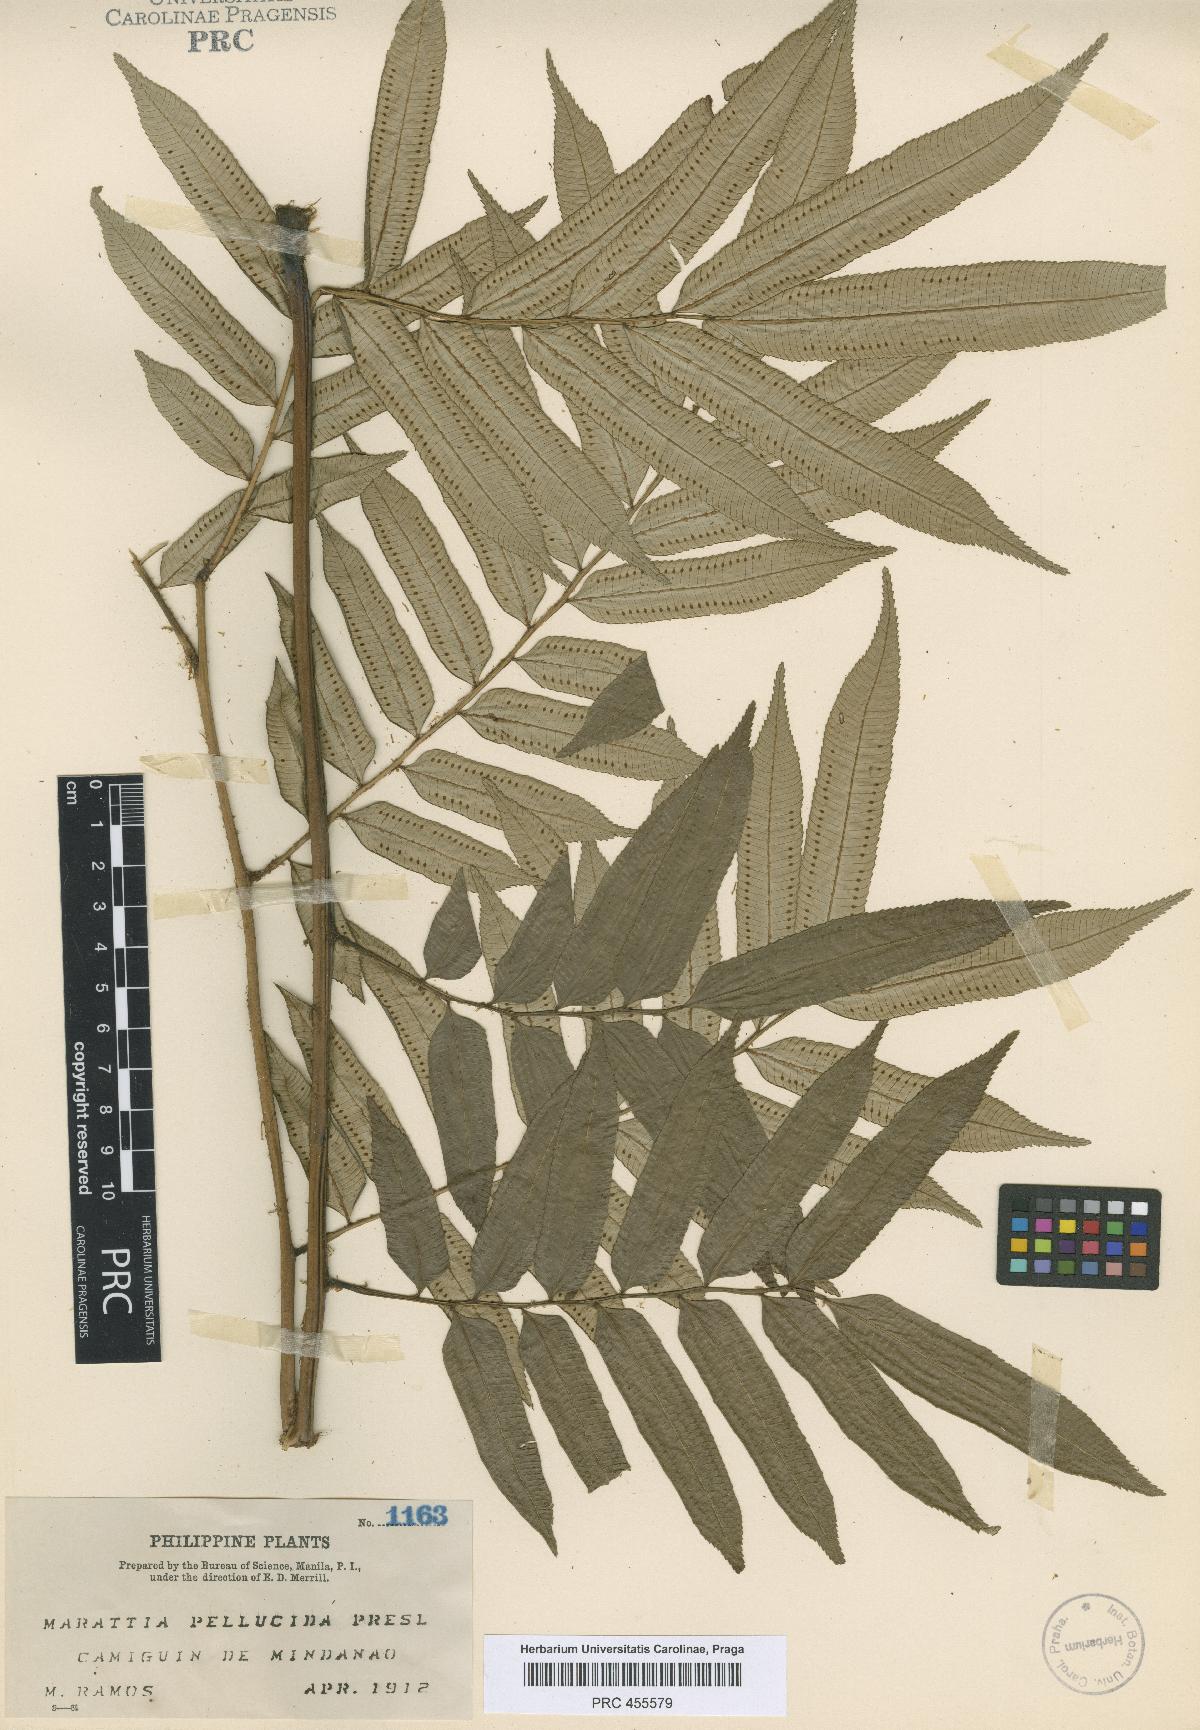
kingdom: Plantae
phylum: Tracheophyta
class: Polypodiopsida
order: Marattiales
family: Marattiaceae
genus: Ptisana
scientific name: Ptisana pellucida
